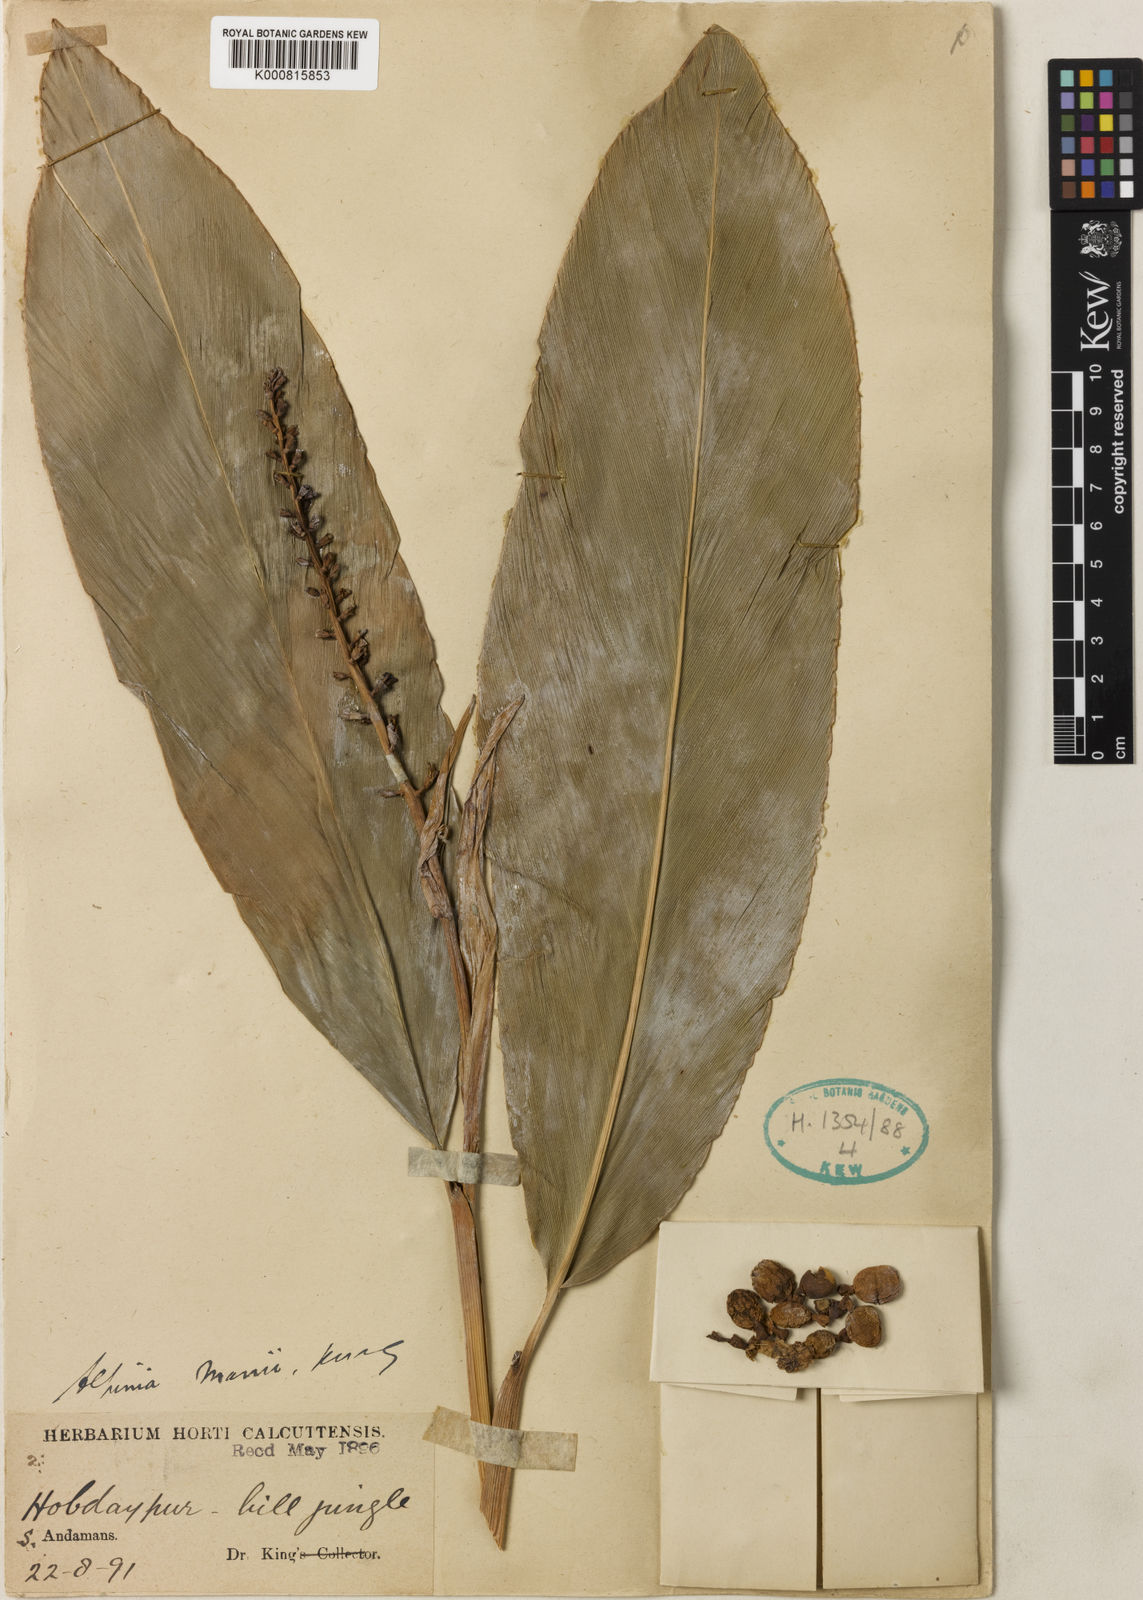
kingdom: Plantae
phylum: Tracheophyta
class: Liliopsida
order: Zingiberales
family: Zingiberaceae
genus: Alpinia
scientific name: Alpinia
